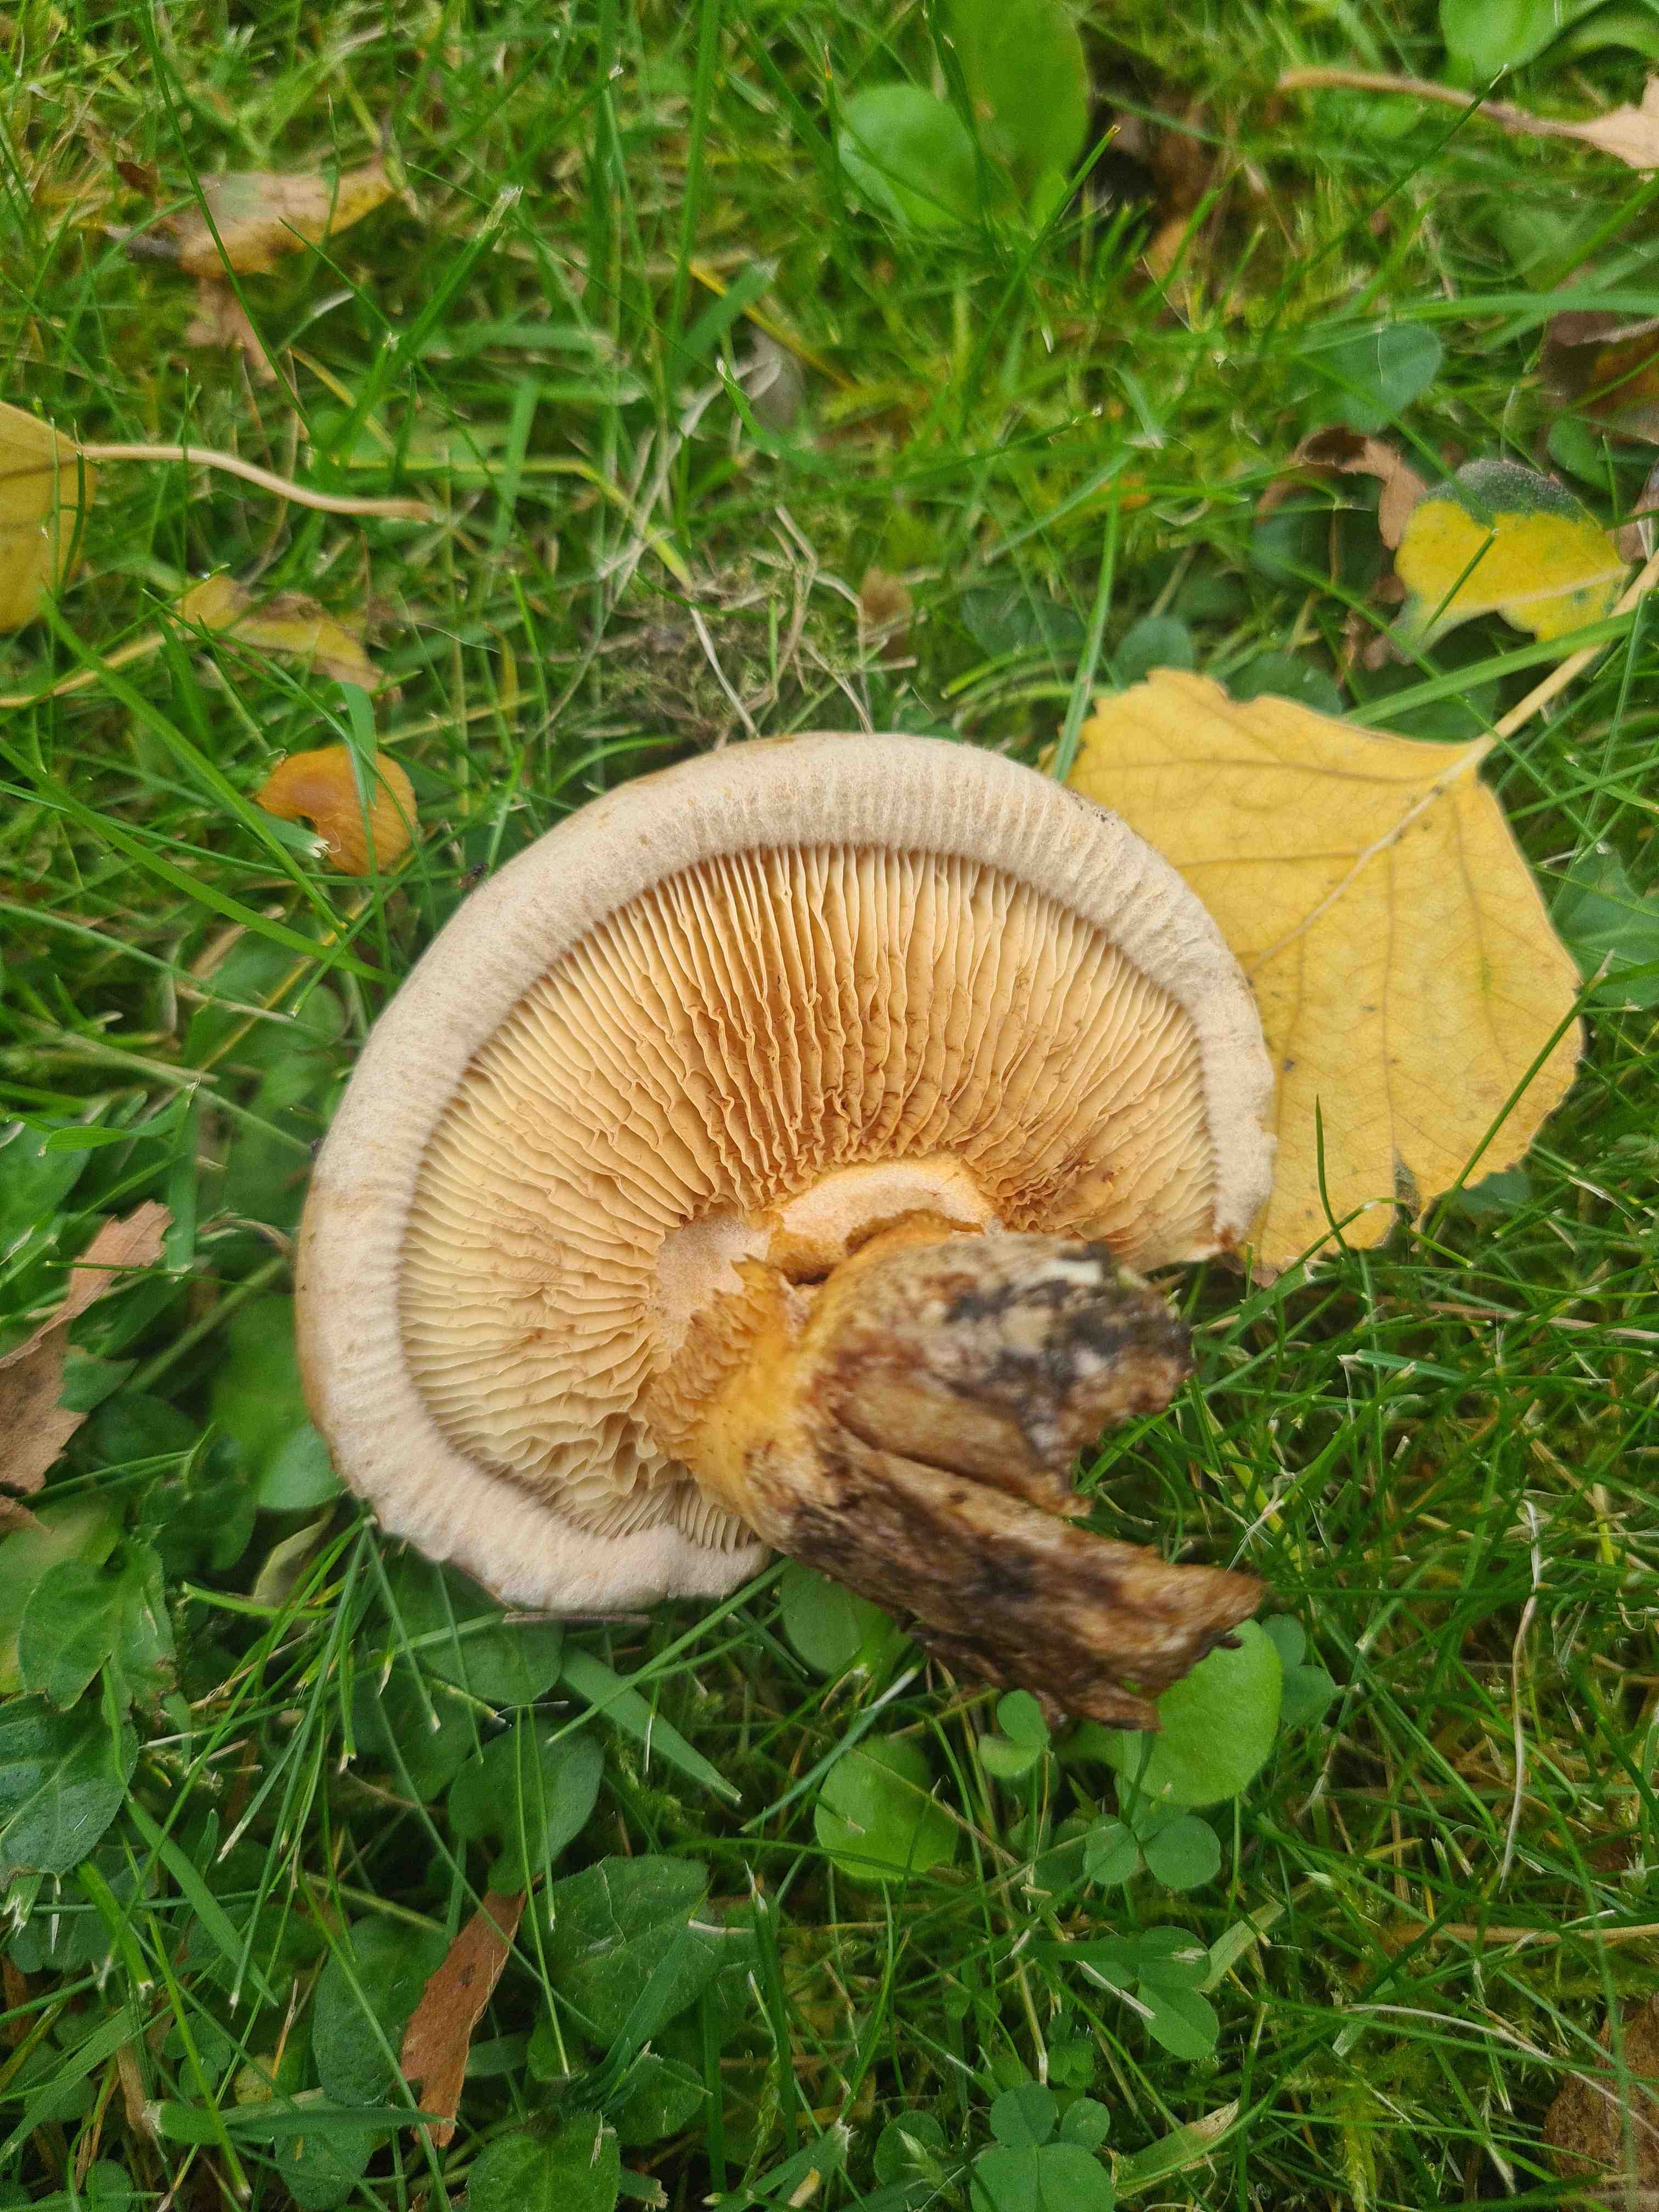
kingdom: Fungi
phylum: Basidiomycota
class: Agaricomycetes
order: Boletales
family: Paxillaceae
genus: Paxillus
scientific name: Paxillus ammoniavirescens
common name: olivensporet netbladhat
